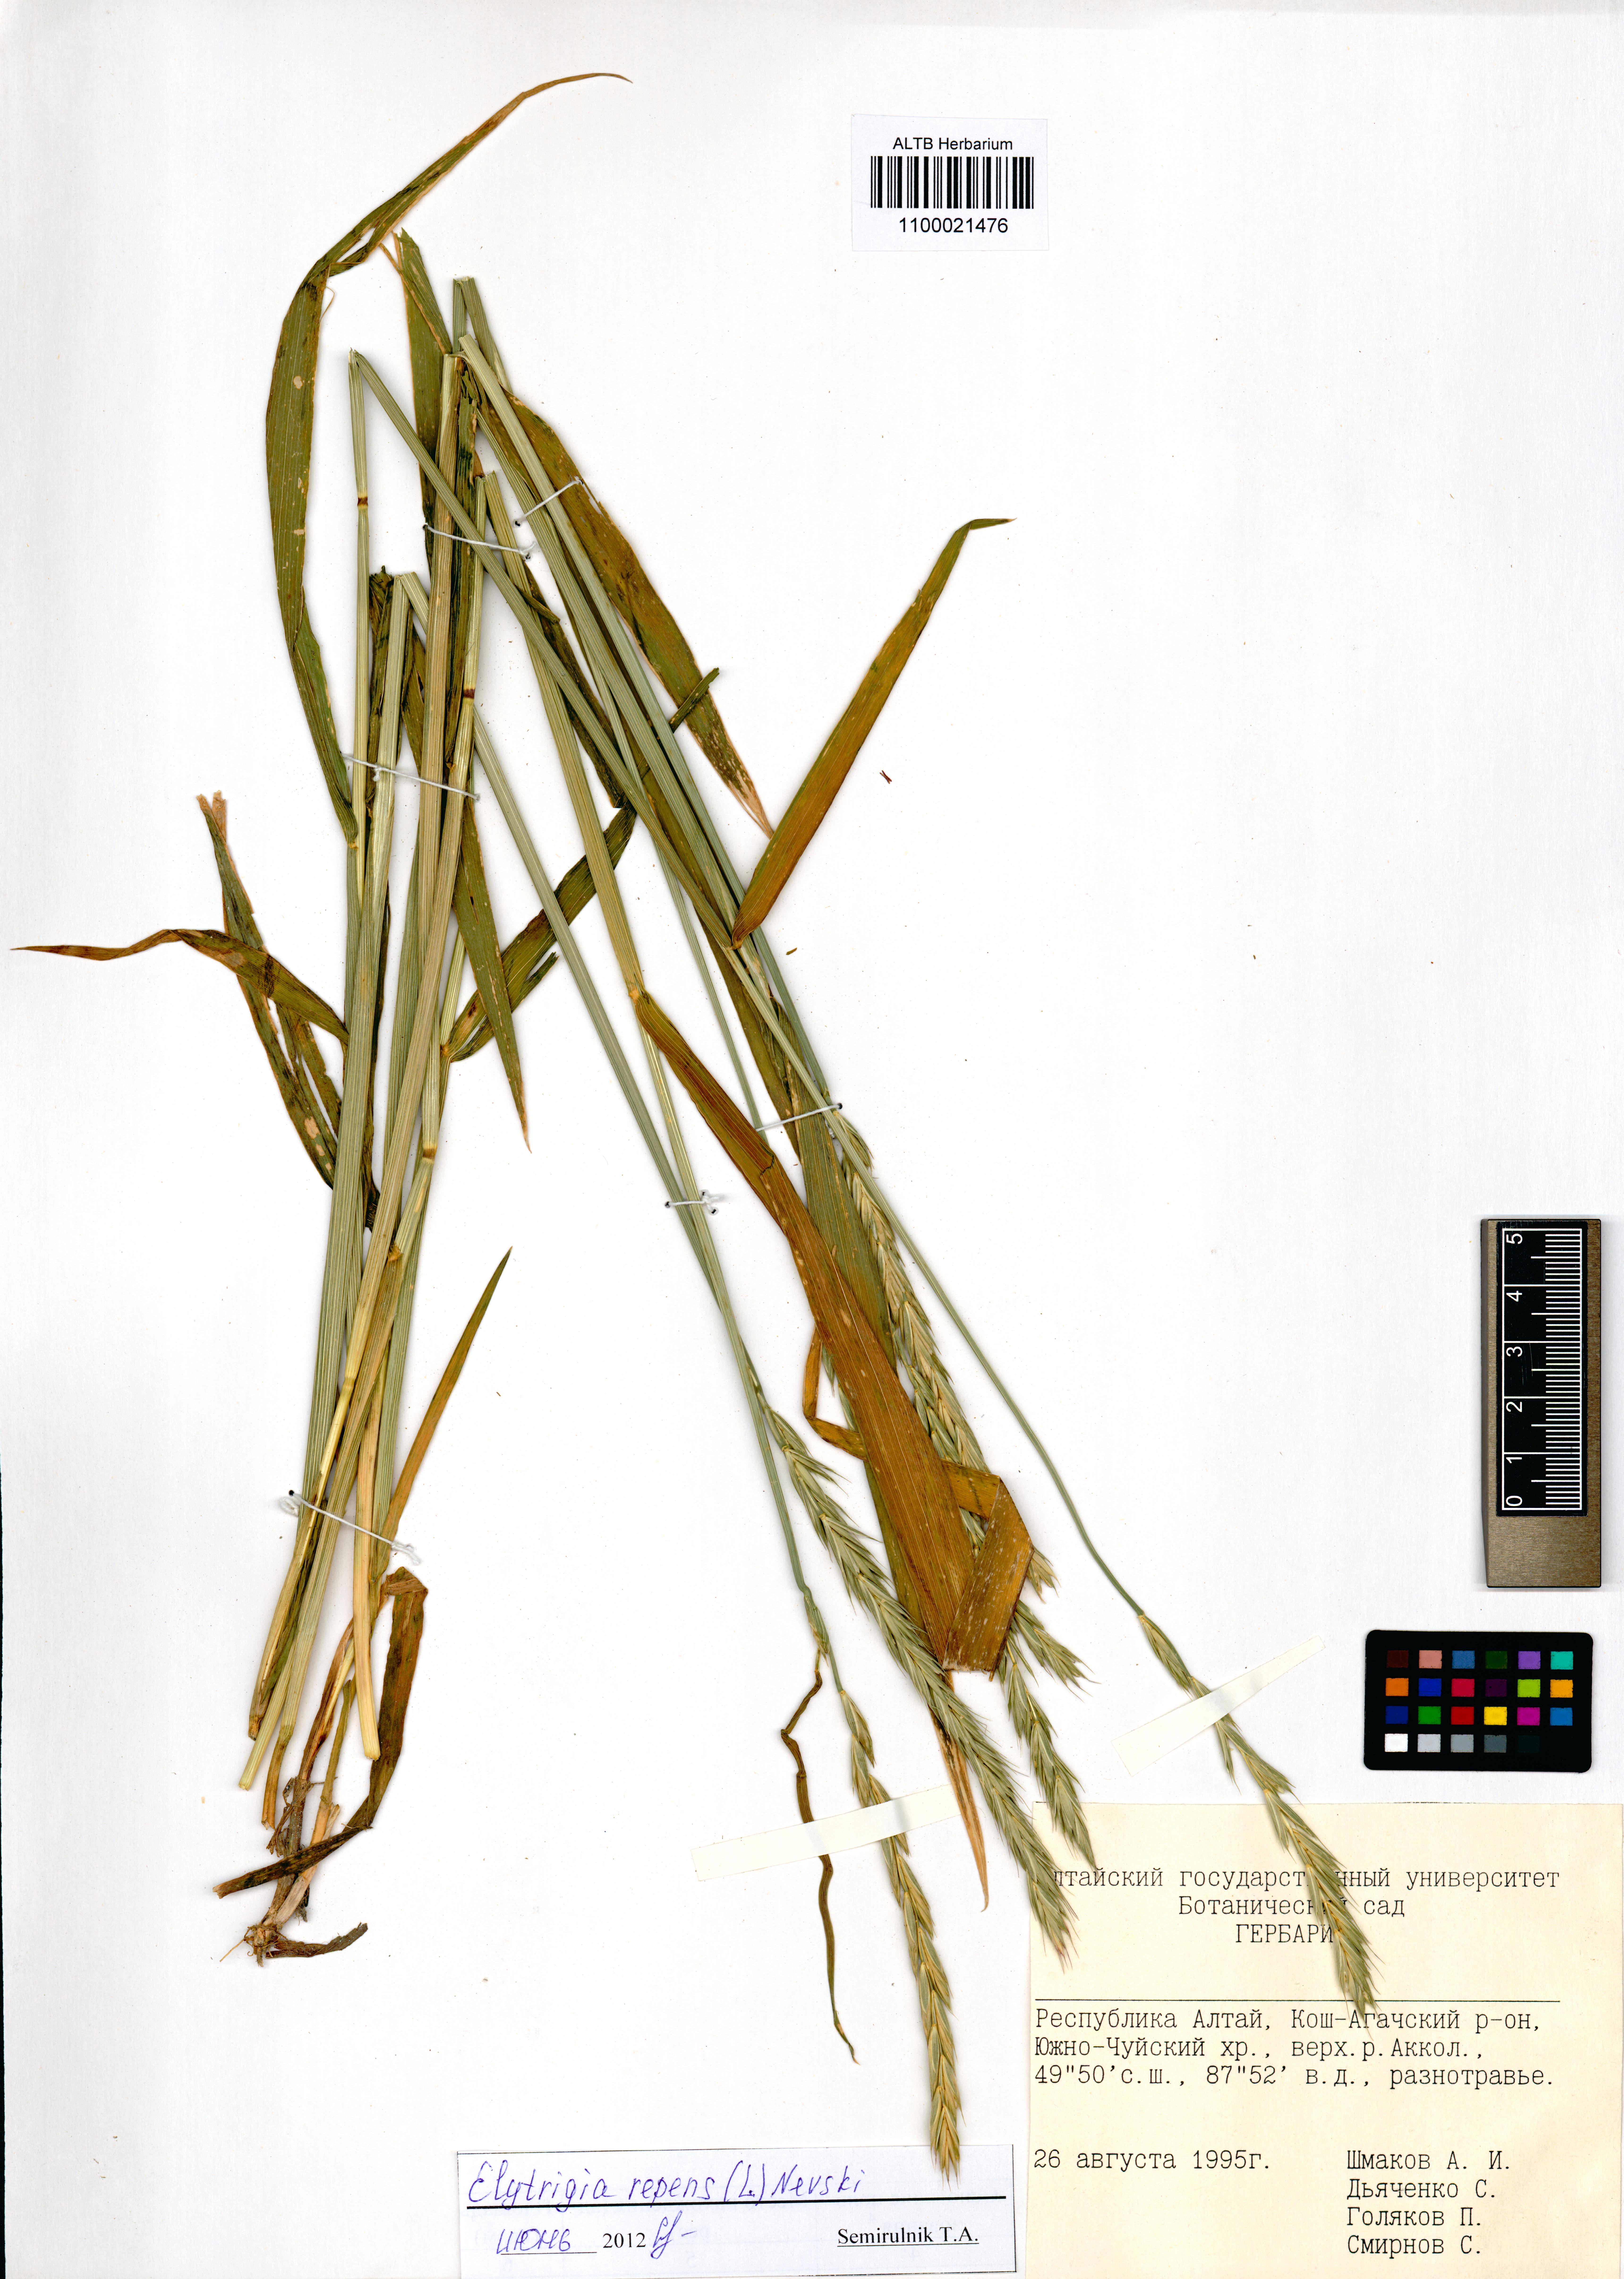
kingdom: Plantae
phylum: Tracheophyta
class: Liliopsida
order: Poales
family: Poaceae
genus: Elymus
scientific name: Elymus repens
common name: Quackgrass
